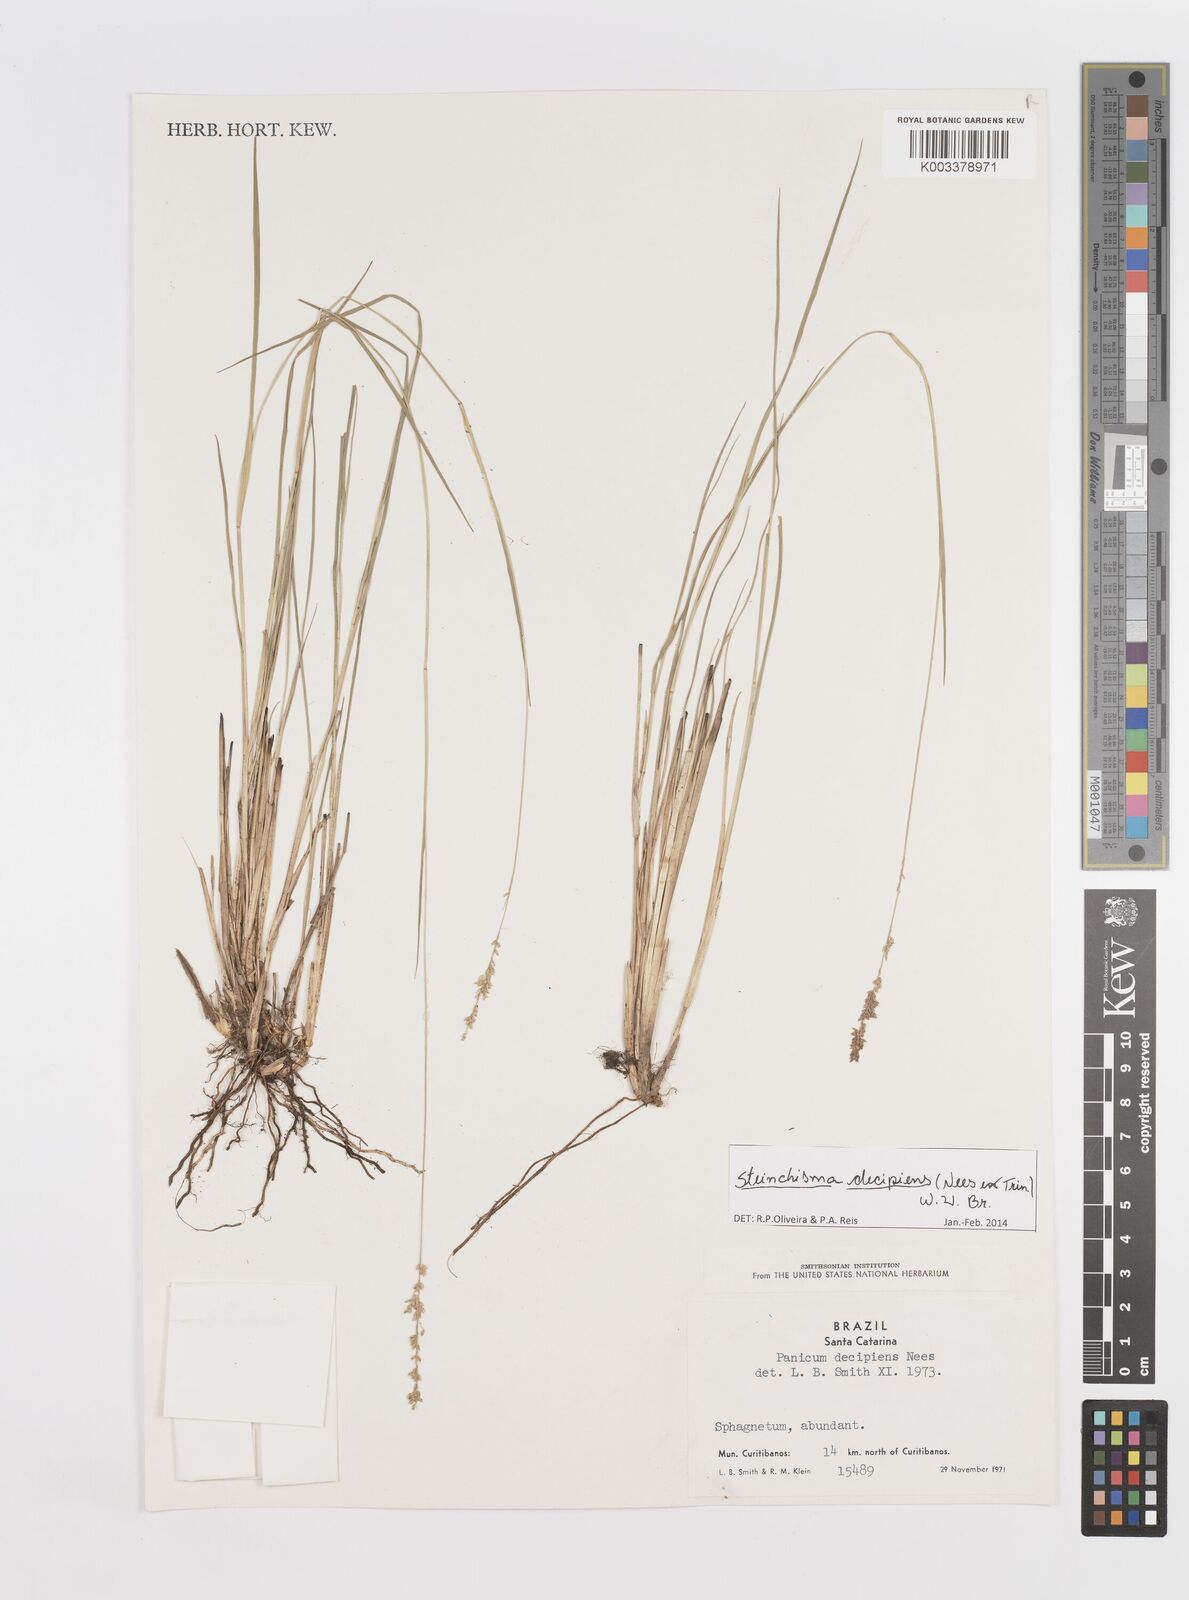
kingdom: Plantae
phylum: Tracheophyta
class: Liliopsida
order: Poales
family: Poaceae
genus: Steinchisma
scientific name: Steinchisma decipiens
